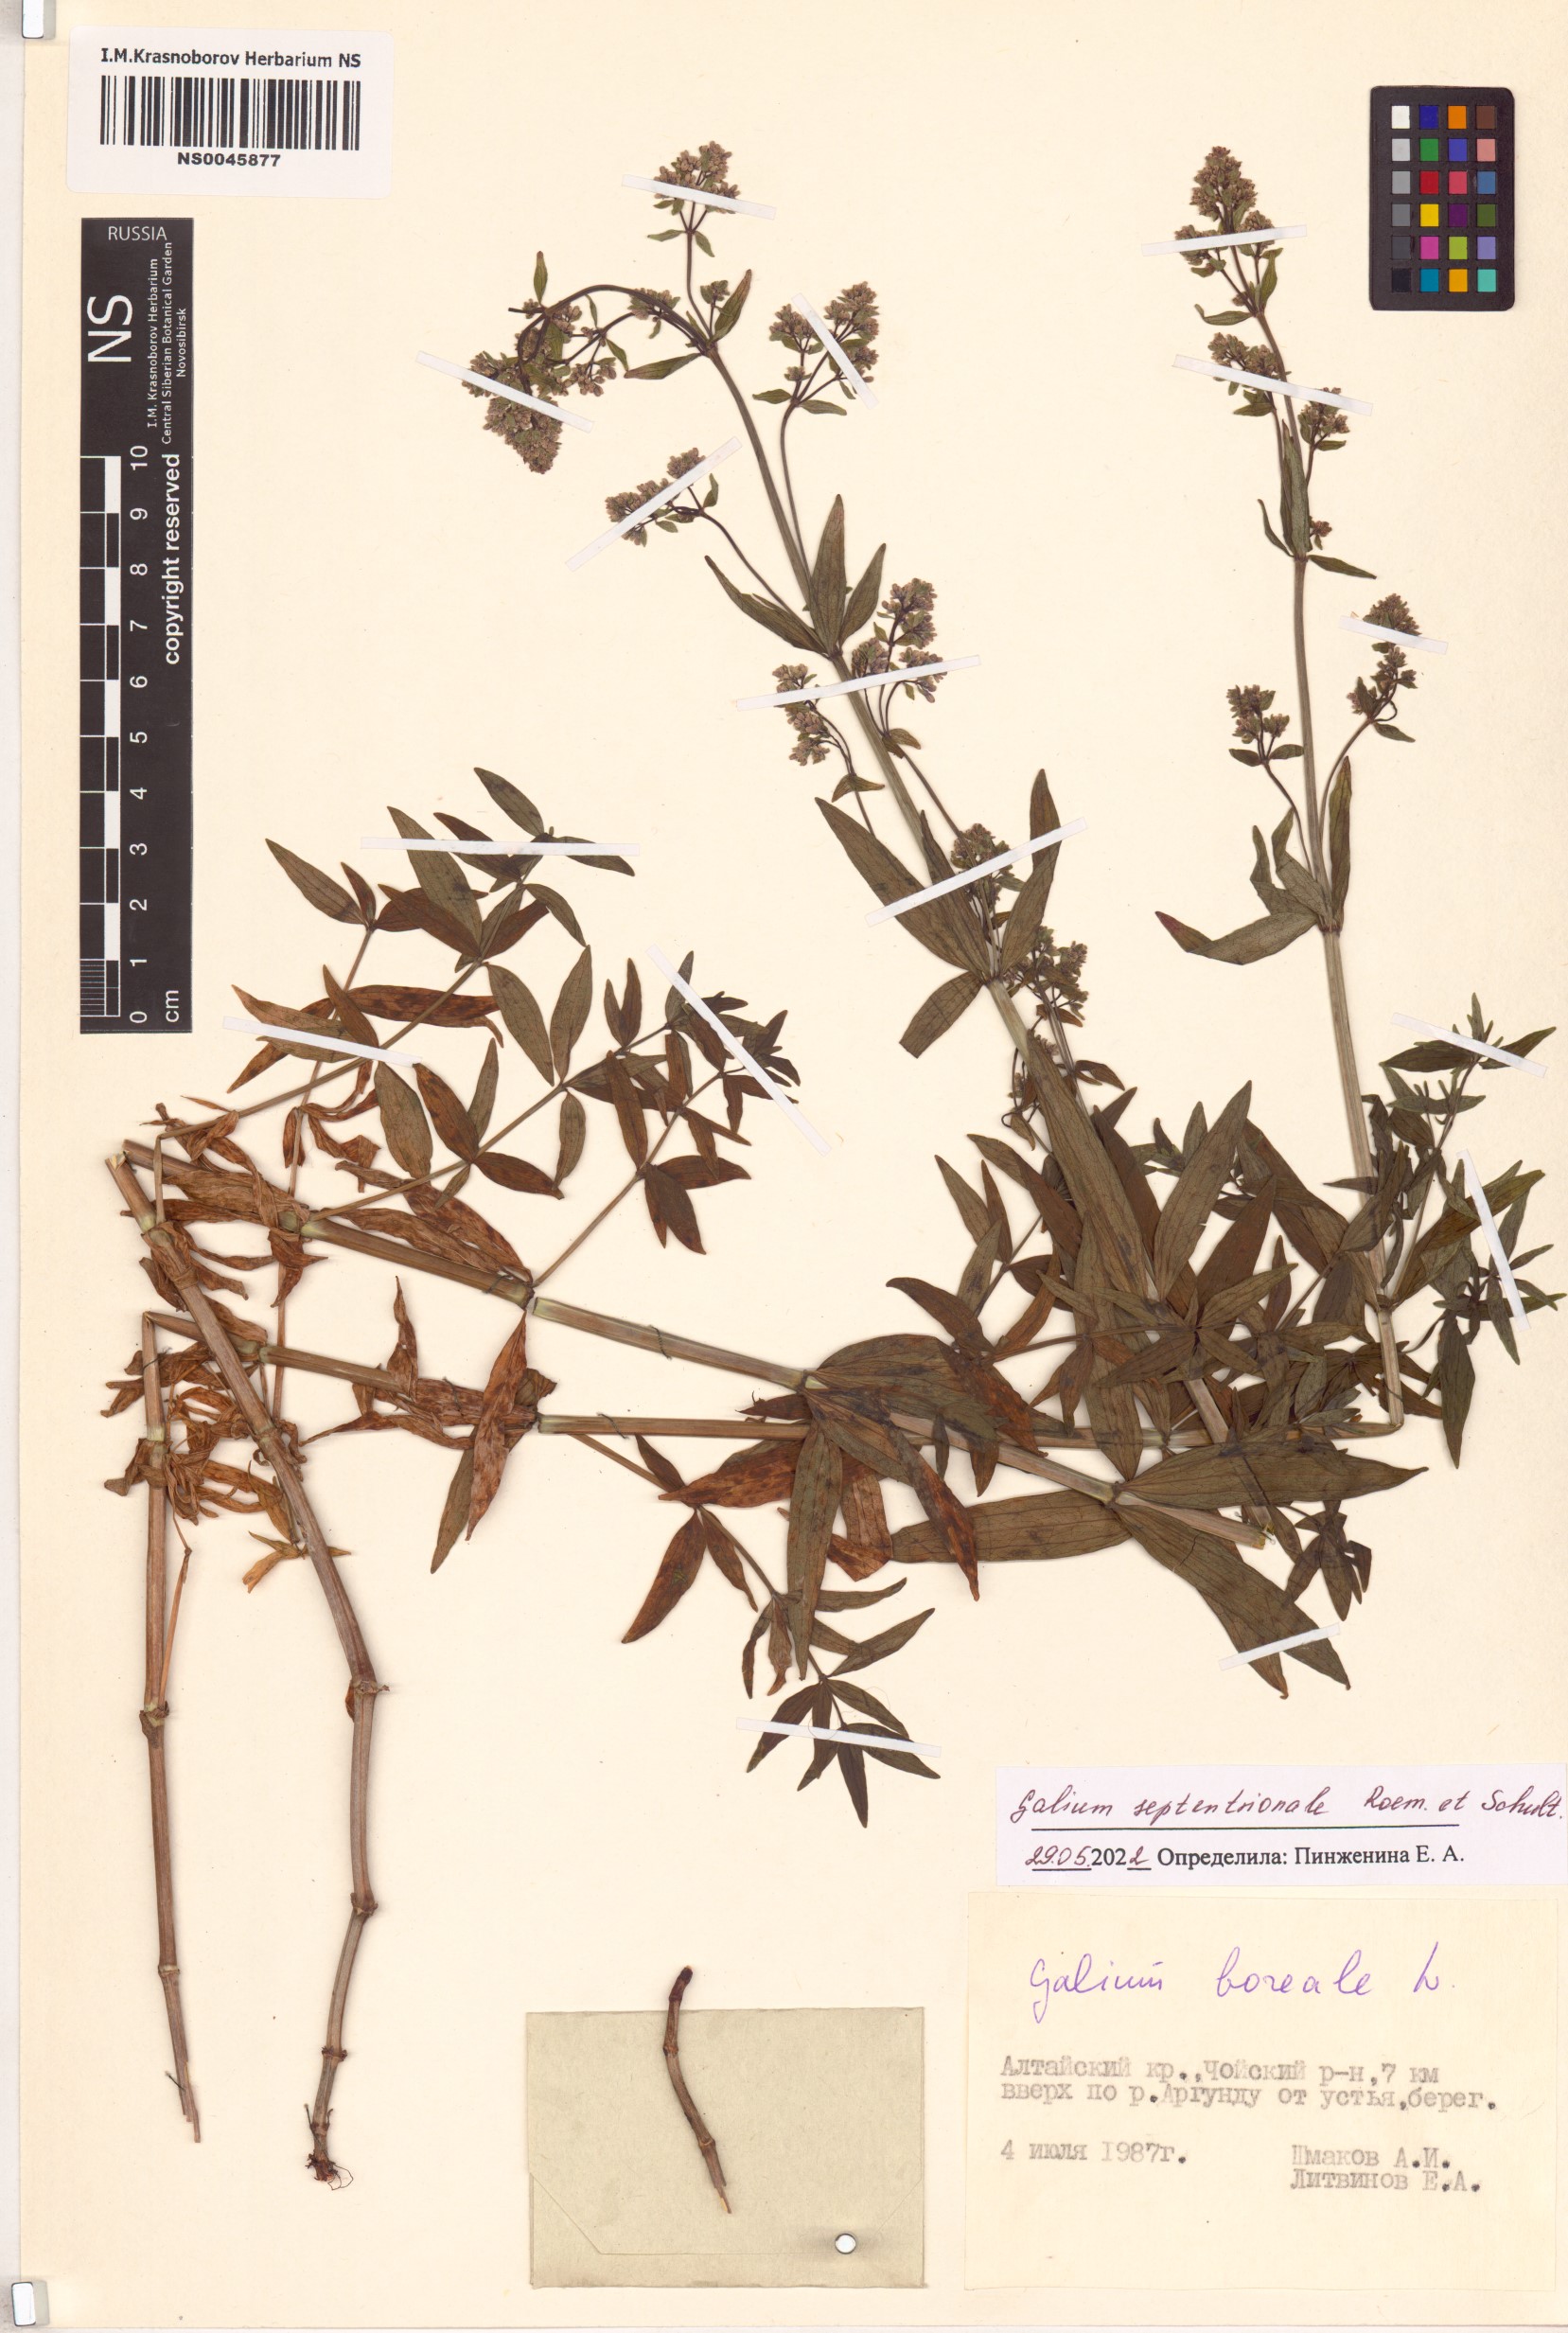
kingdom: Plantae
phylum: Tracheophyta
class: Magnoliopsida
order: Gentianales
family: Rubiaceae
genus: Galium
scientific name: Galium boreale
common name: Northern bedstraw
